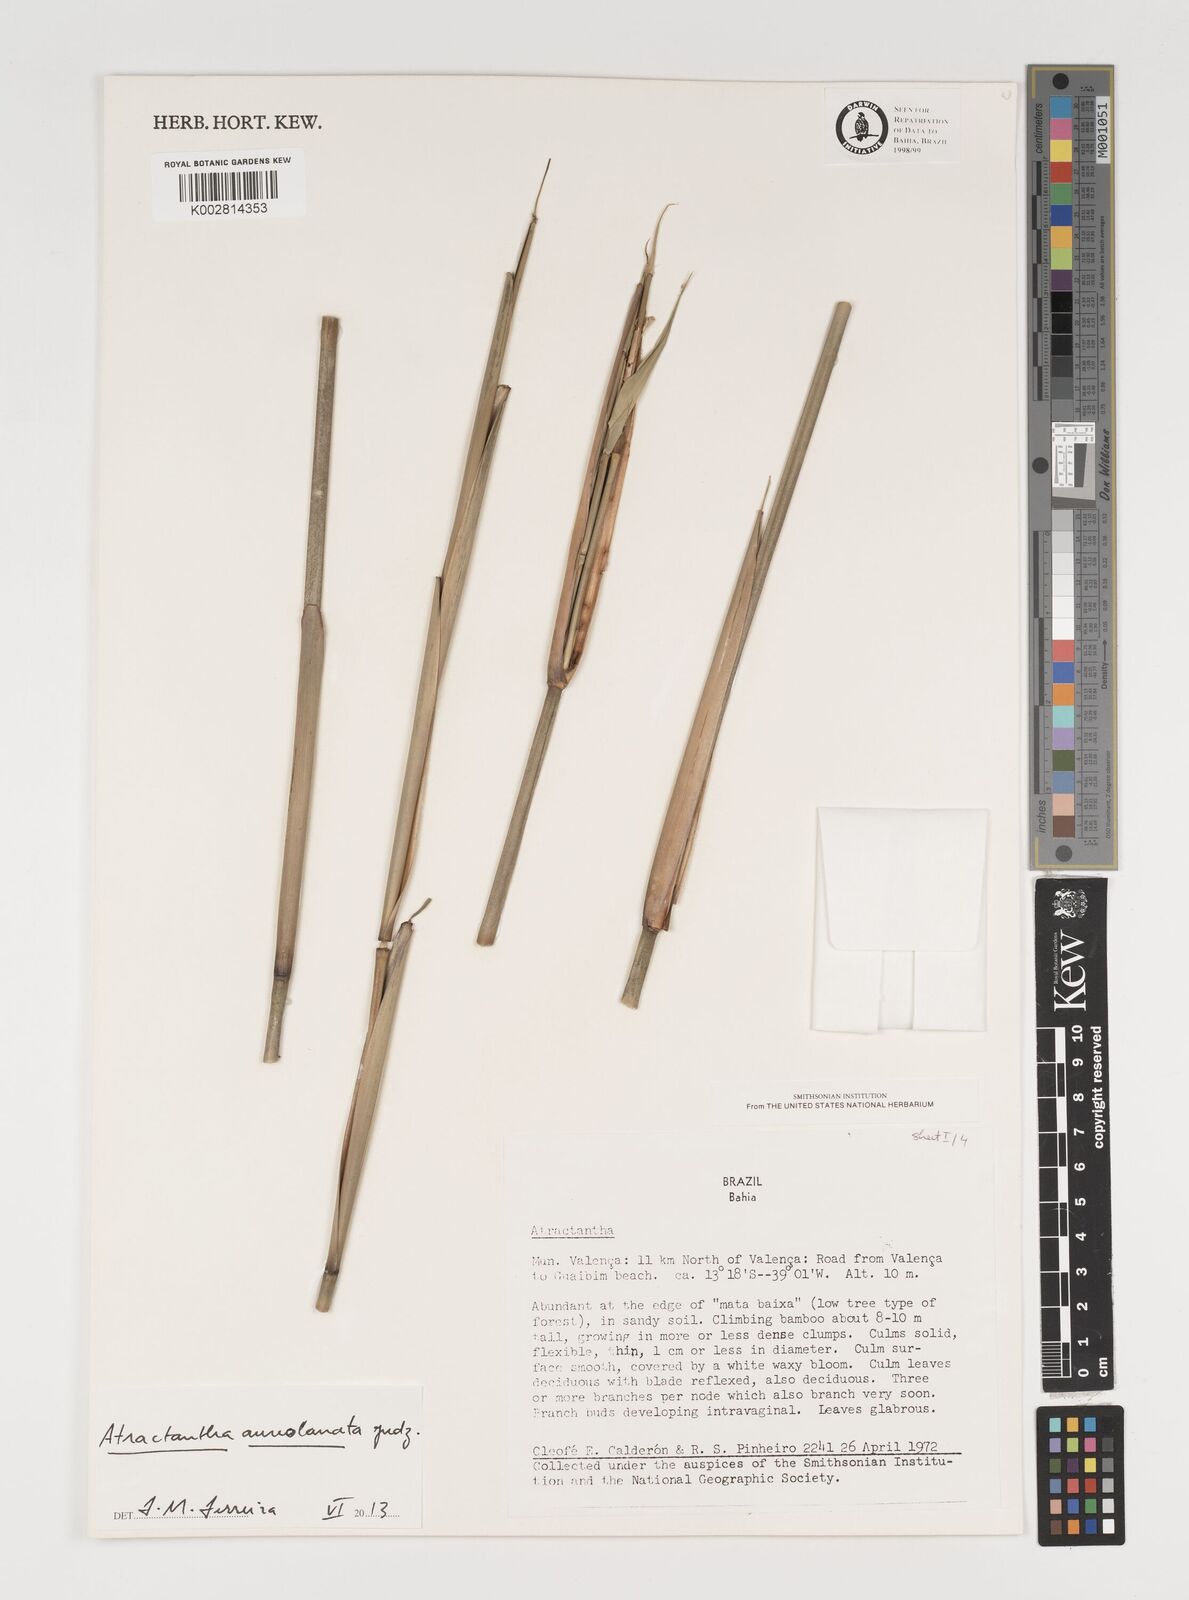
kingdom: Plantae
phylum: Tracheophyta
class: Liliopsida
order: Poales
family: Poaceae
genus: Atractantha
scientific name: Atractantha aureolanata
